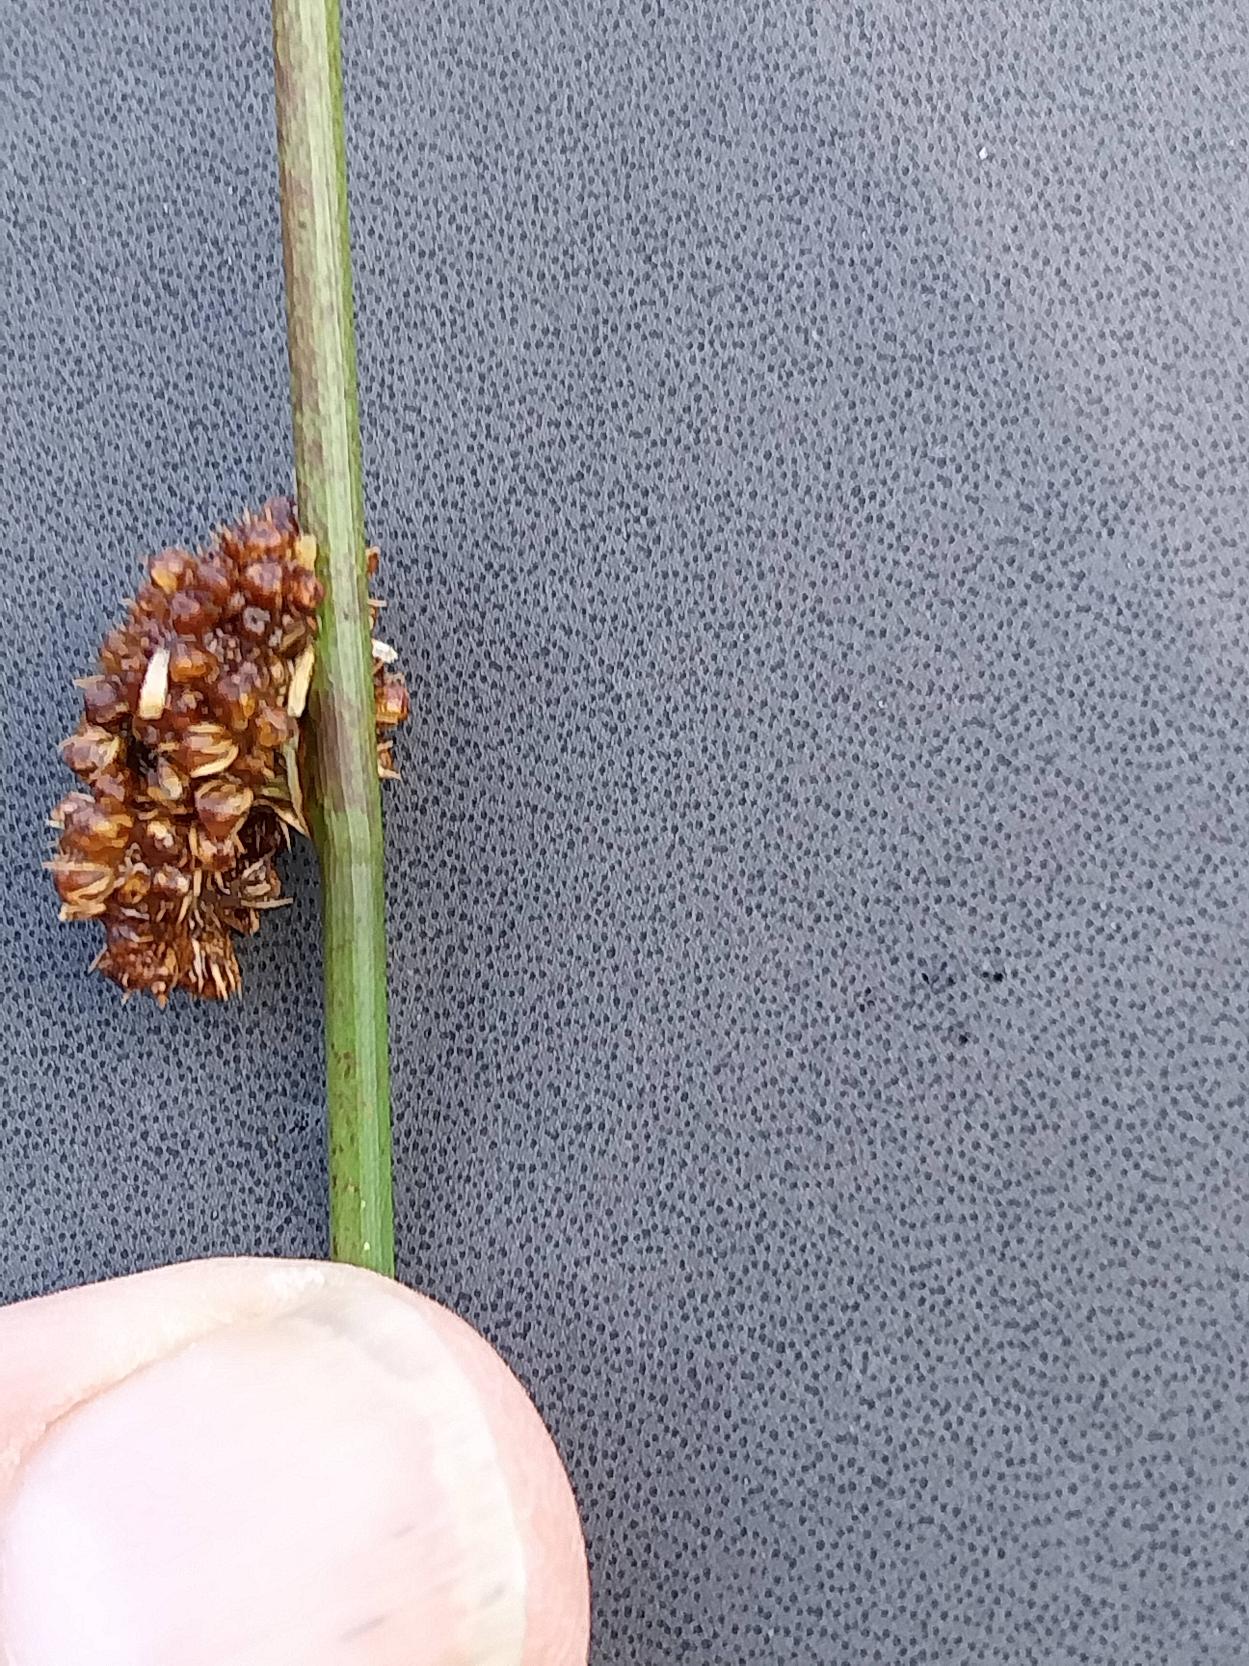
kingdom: Plantae
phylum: Tracheophyta
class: Liliopsida
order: Poales
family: Juncaceae
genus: Juncus
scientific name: Juncus conglomeratus
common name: Knop-siv
